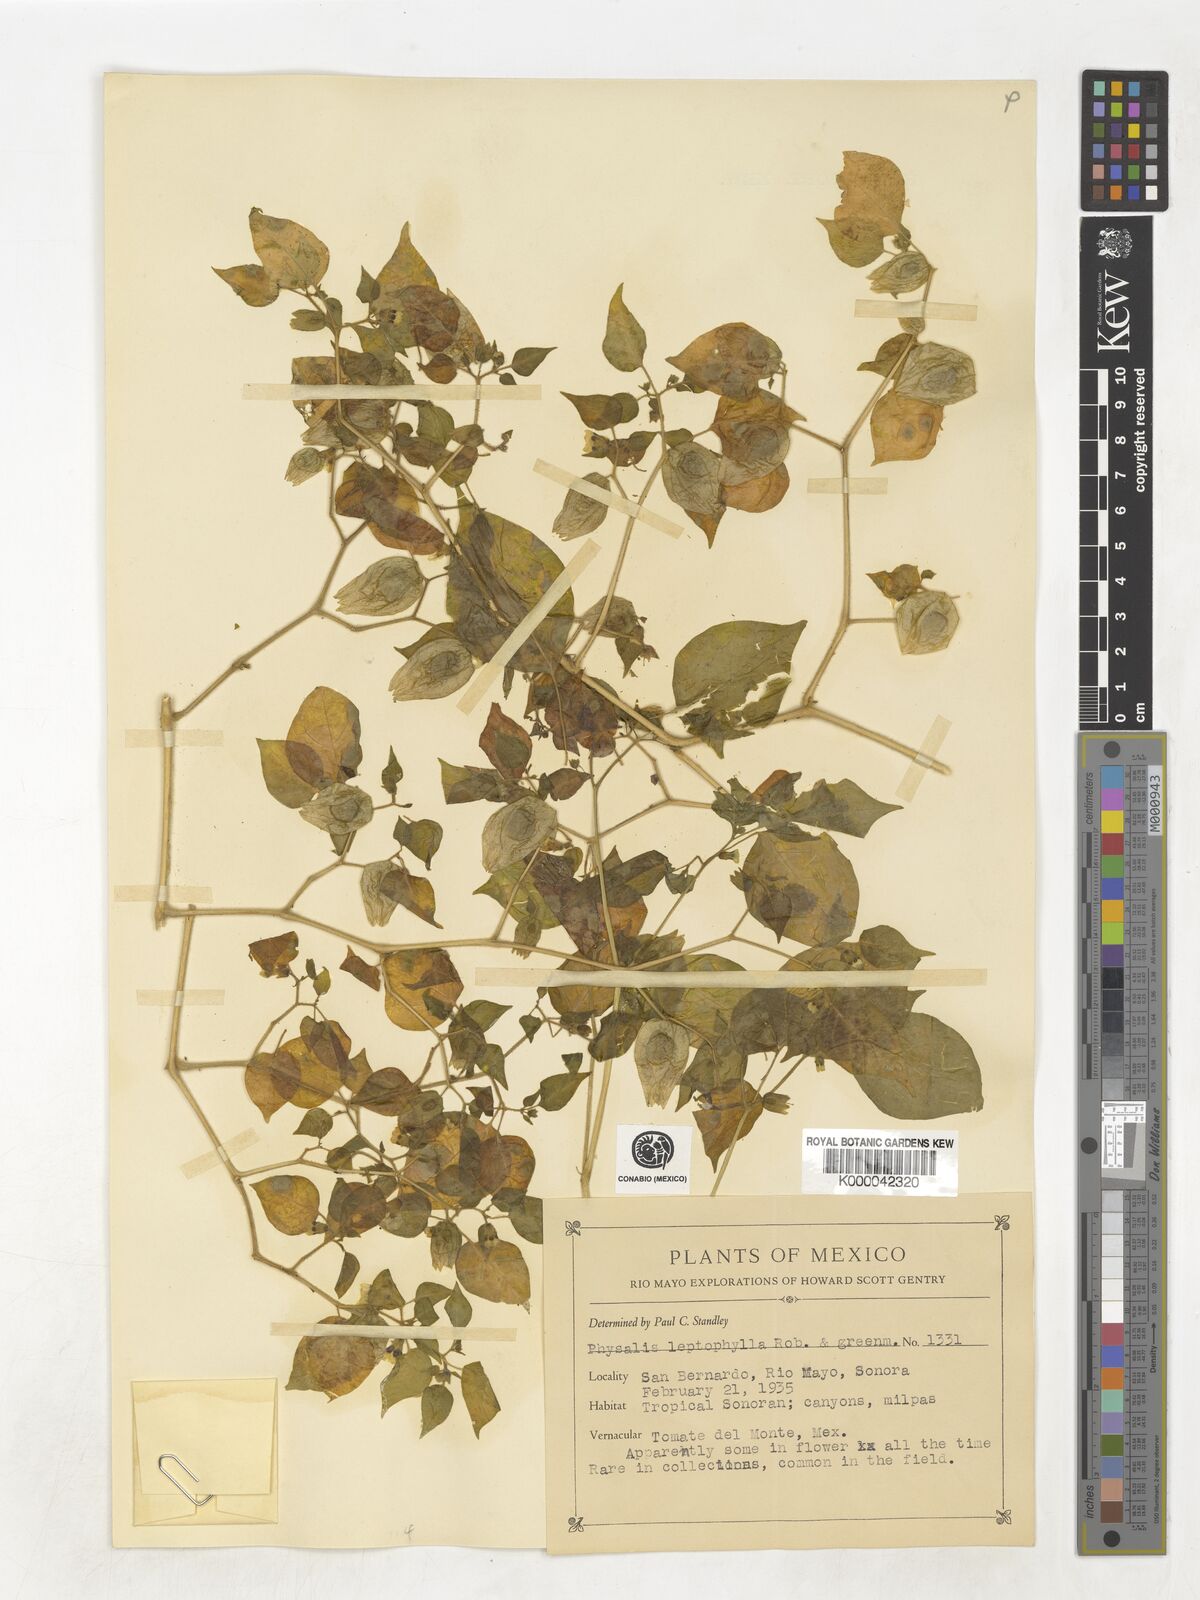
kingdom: Plantae
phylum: Tracheophyta
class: Magnoliopsida
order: Solanales
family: Solanaceae
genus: Physalis
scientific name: Physalis leptophylla
